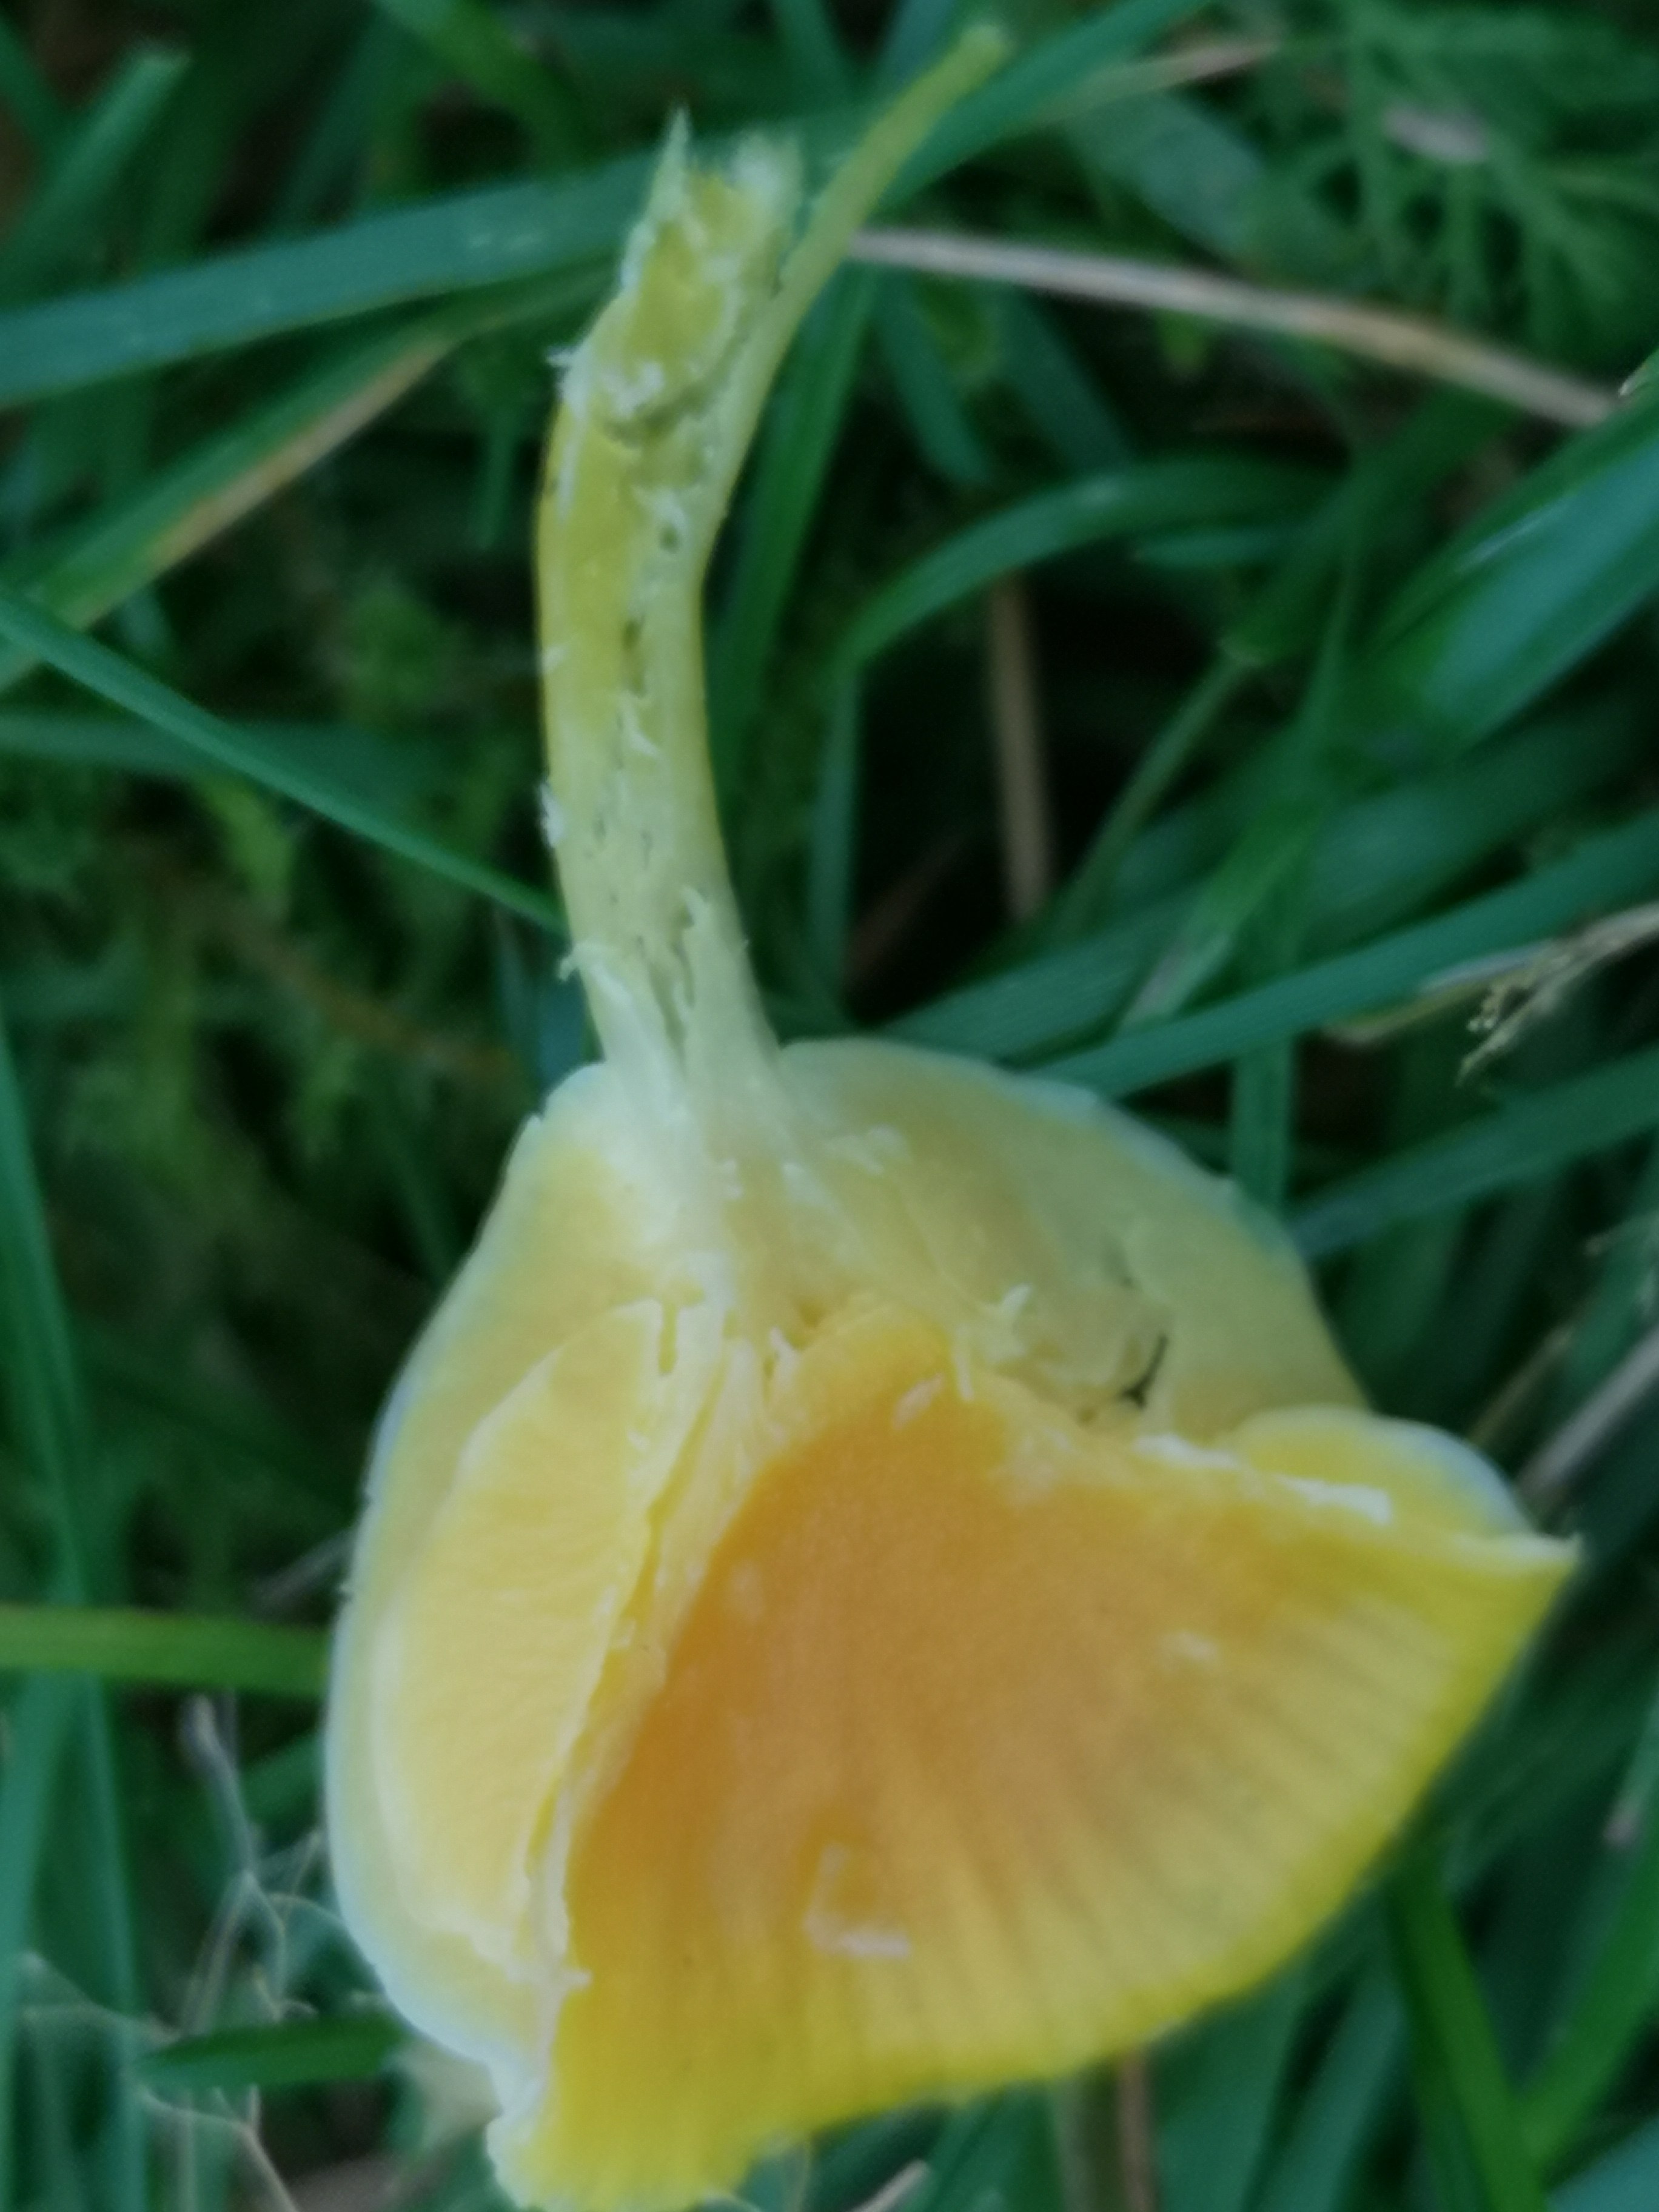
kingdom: Fungi
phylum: Basidiomycota
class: Agaricomycetes
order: Agaricales
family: Hygrophoraceae
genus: Hygrocybe
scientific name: Hygrocybe chlorophana
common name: gul vokshat
